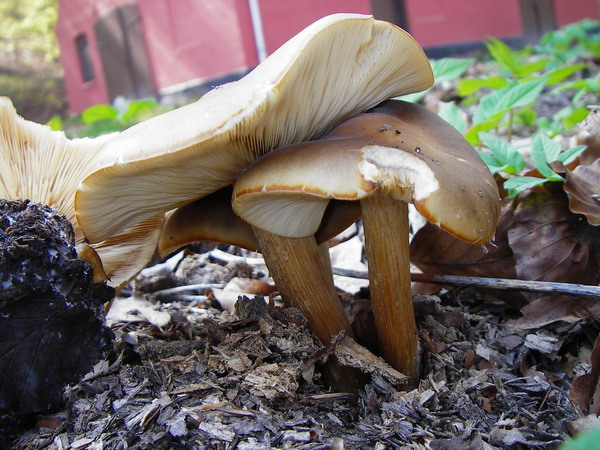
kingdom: Fungi
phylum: Basidiomycota
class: Agaricomycetes
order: Agaricales
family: Tricholomataceae
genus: Melanoleuca
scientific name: Melanoleuca cognata
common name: gyldengrå munkehat
